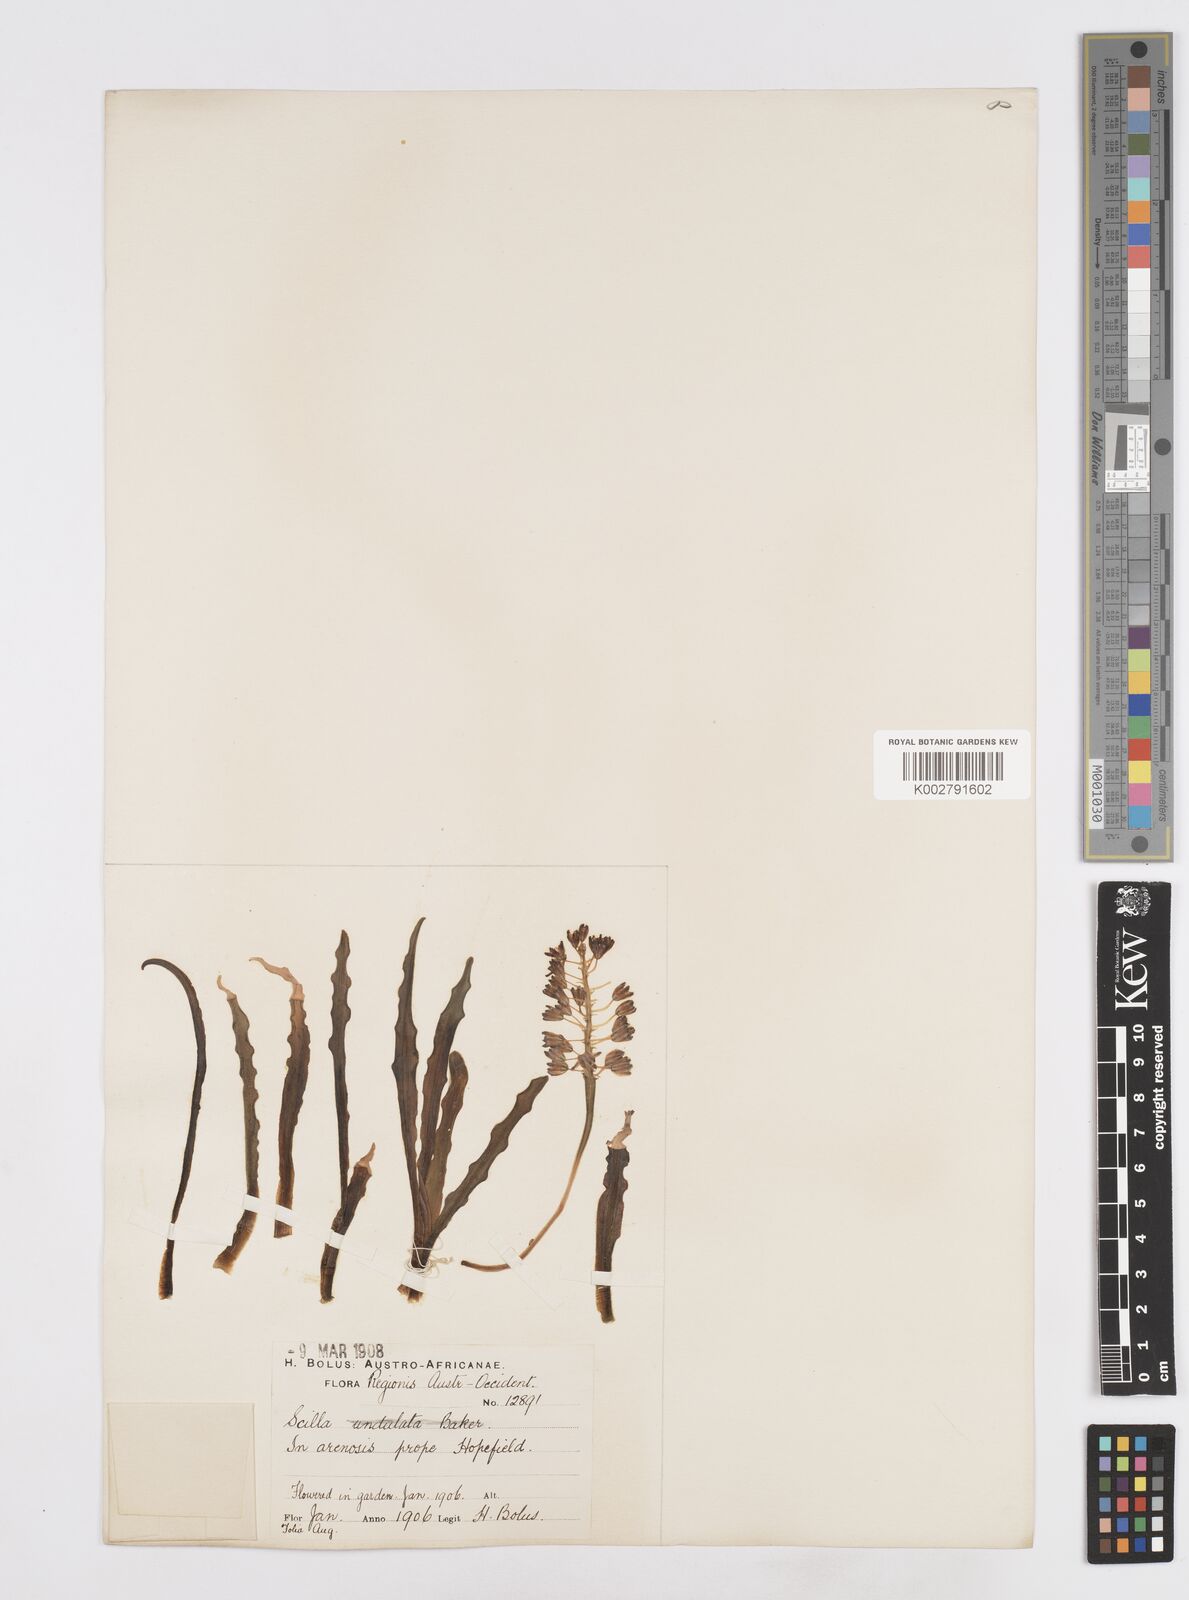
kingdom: Plantae
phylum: Tracheophyta
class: Liliopsida
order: Asparagales
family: Asparagaceae
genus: Scilla
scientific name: Scilla
